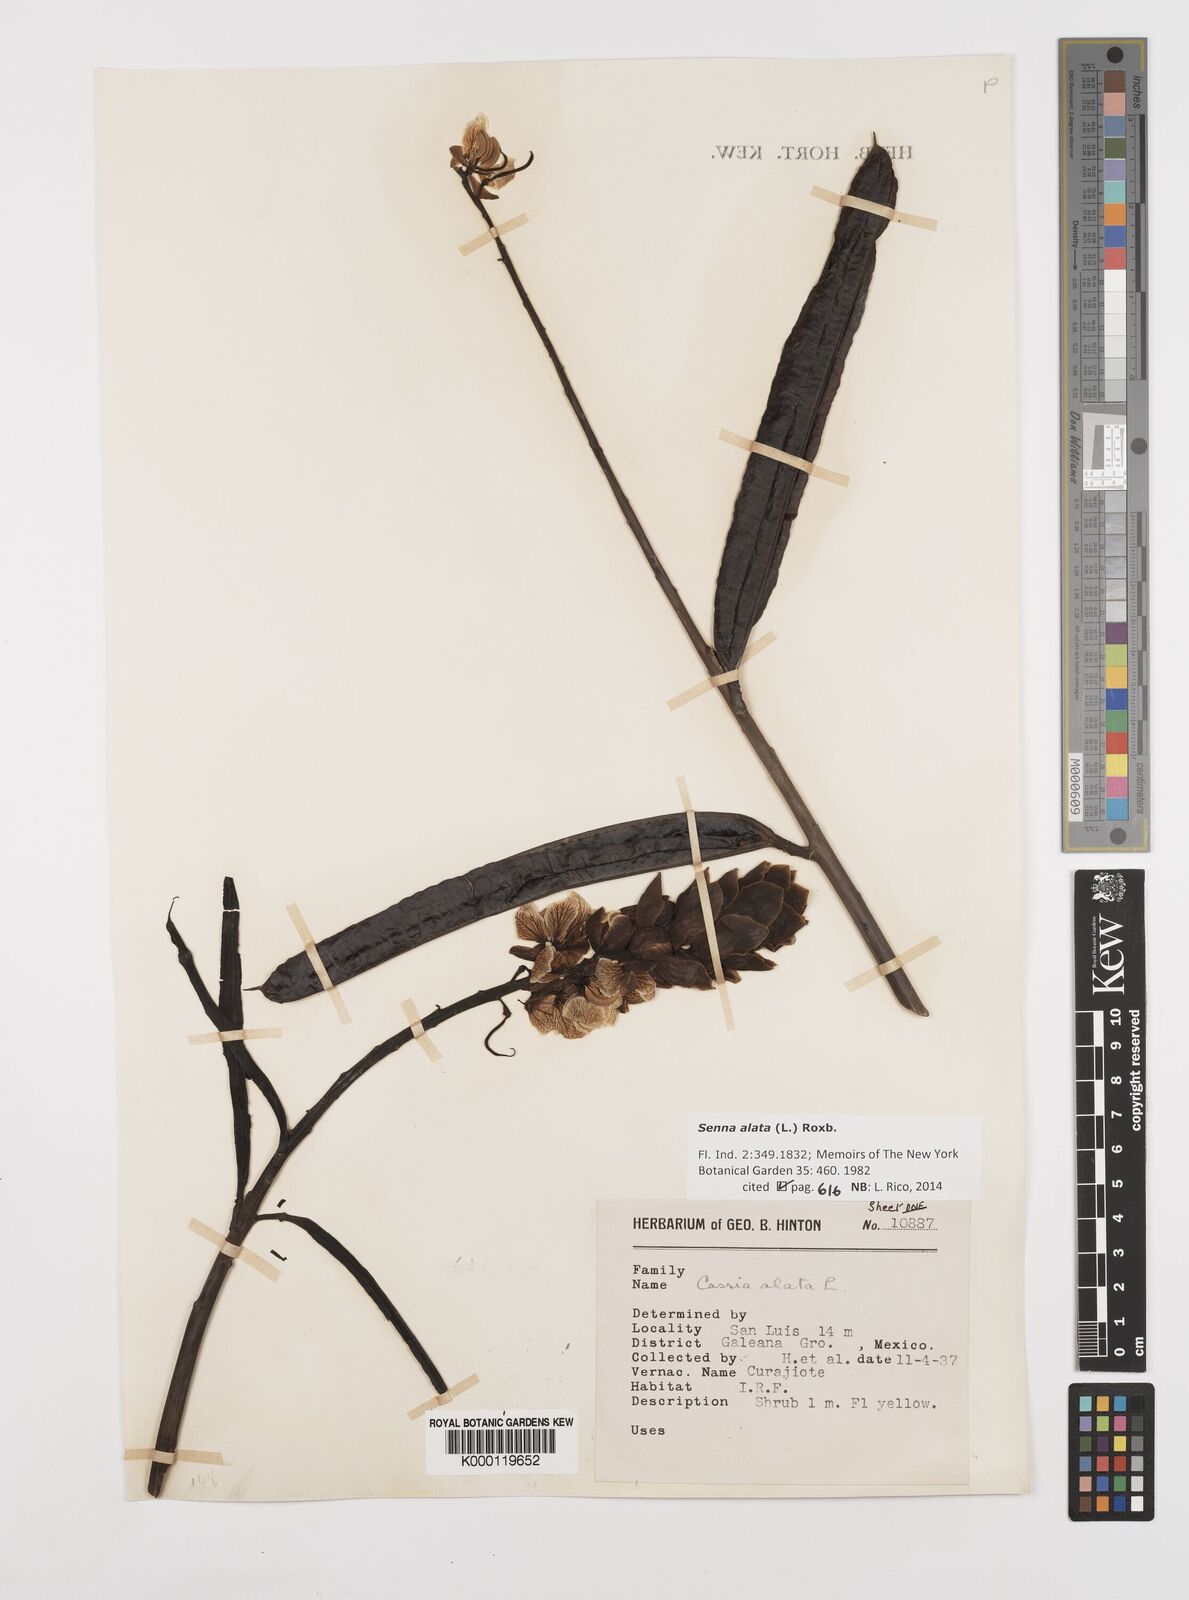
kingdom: Plantae
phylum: Tracheophyta
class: Magnoliopsida
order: Fabales
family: Fabaceae
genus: Senna
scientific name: Senna alata
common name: Emperor's candlesticks
